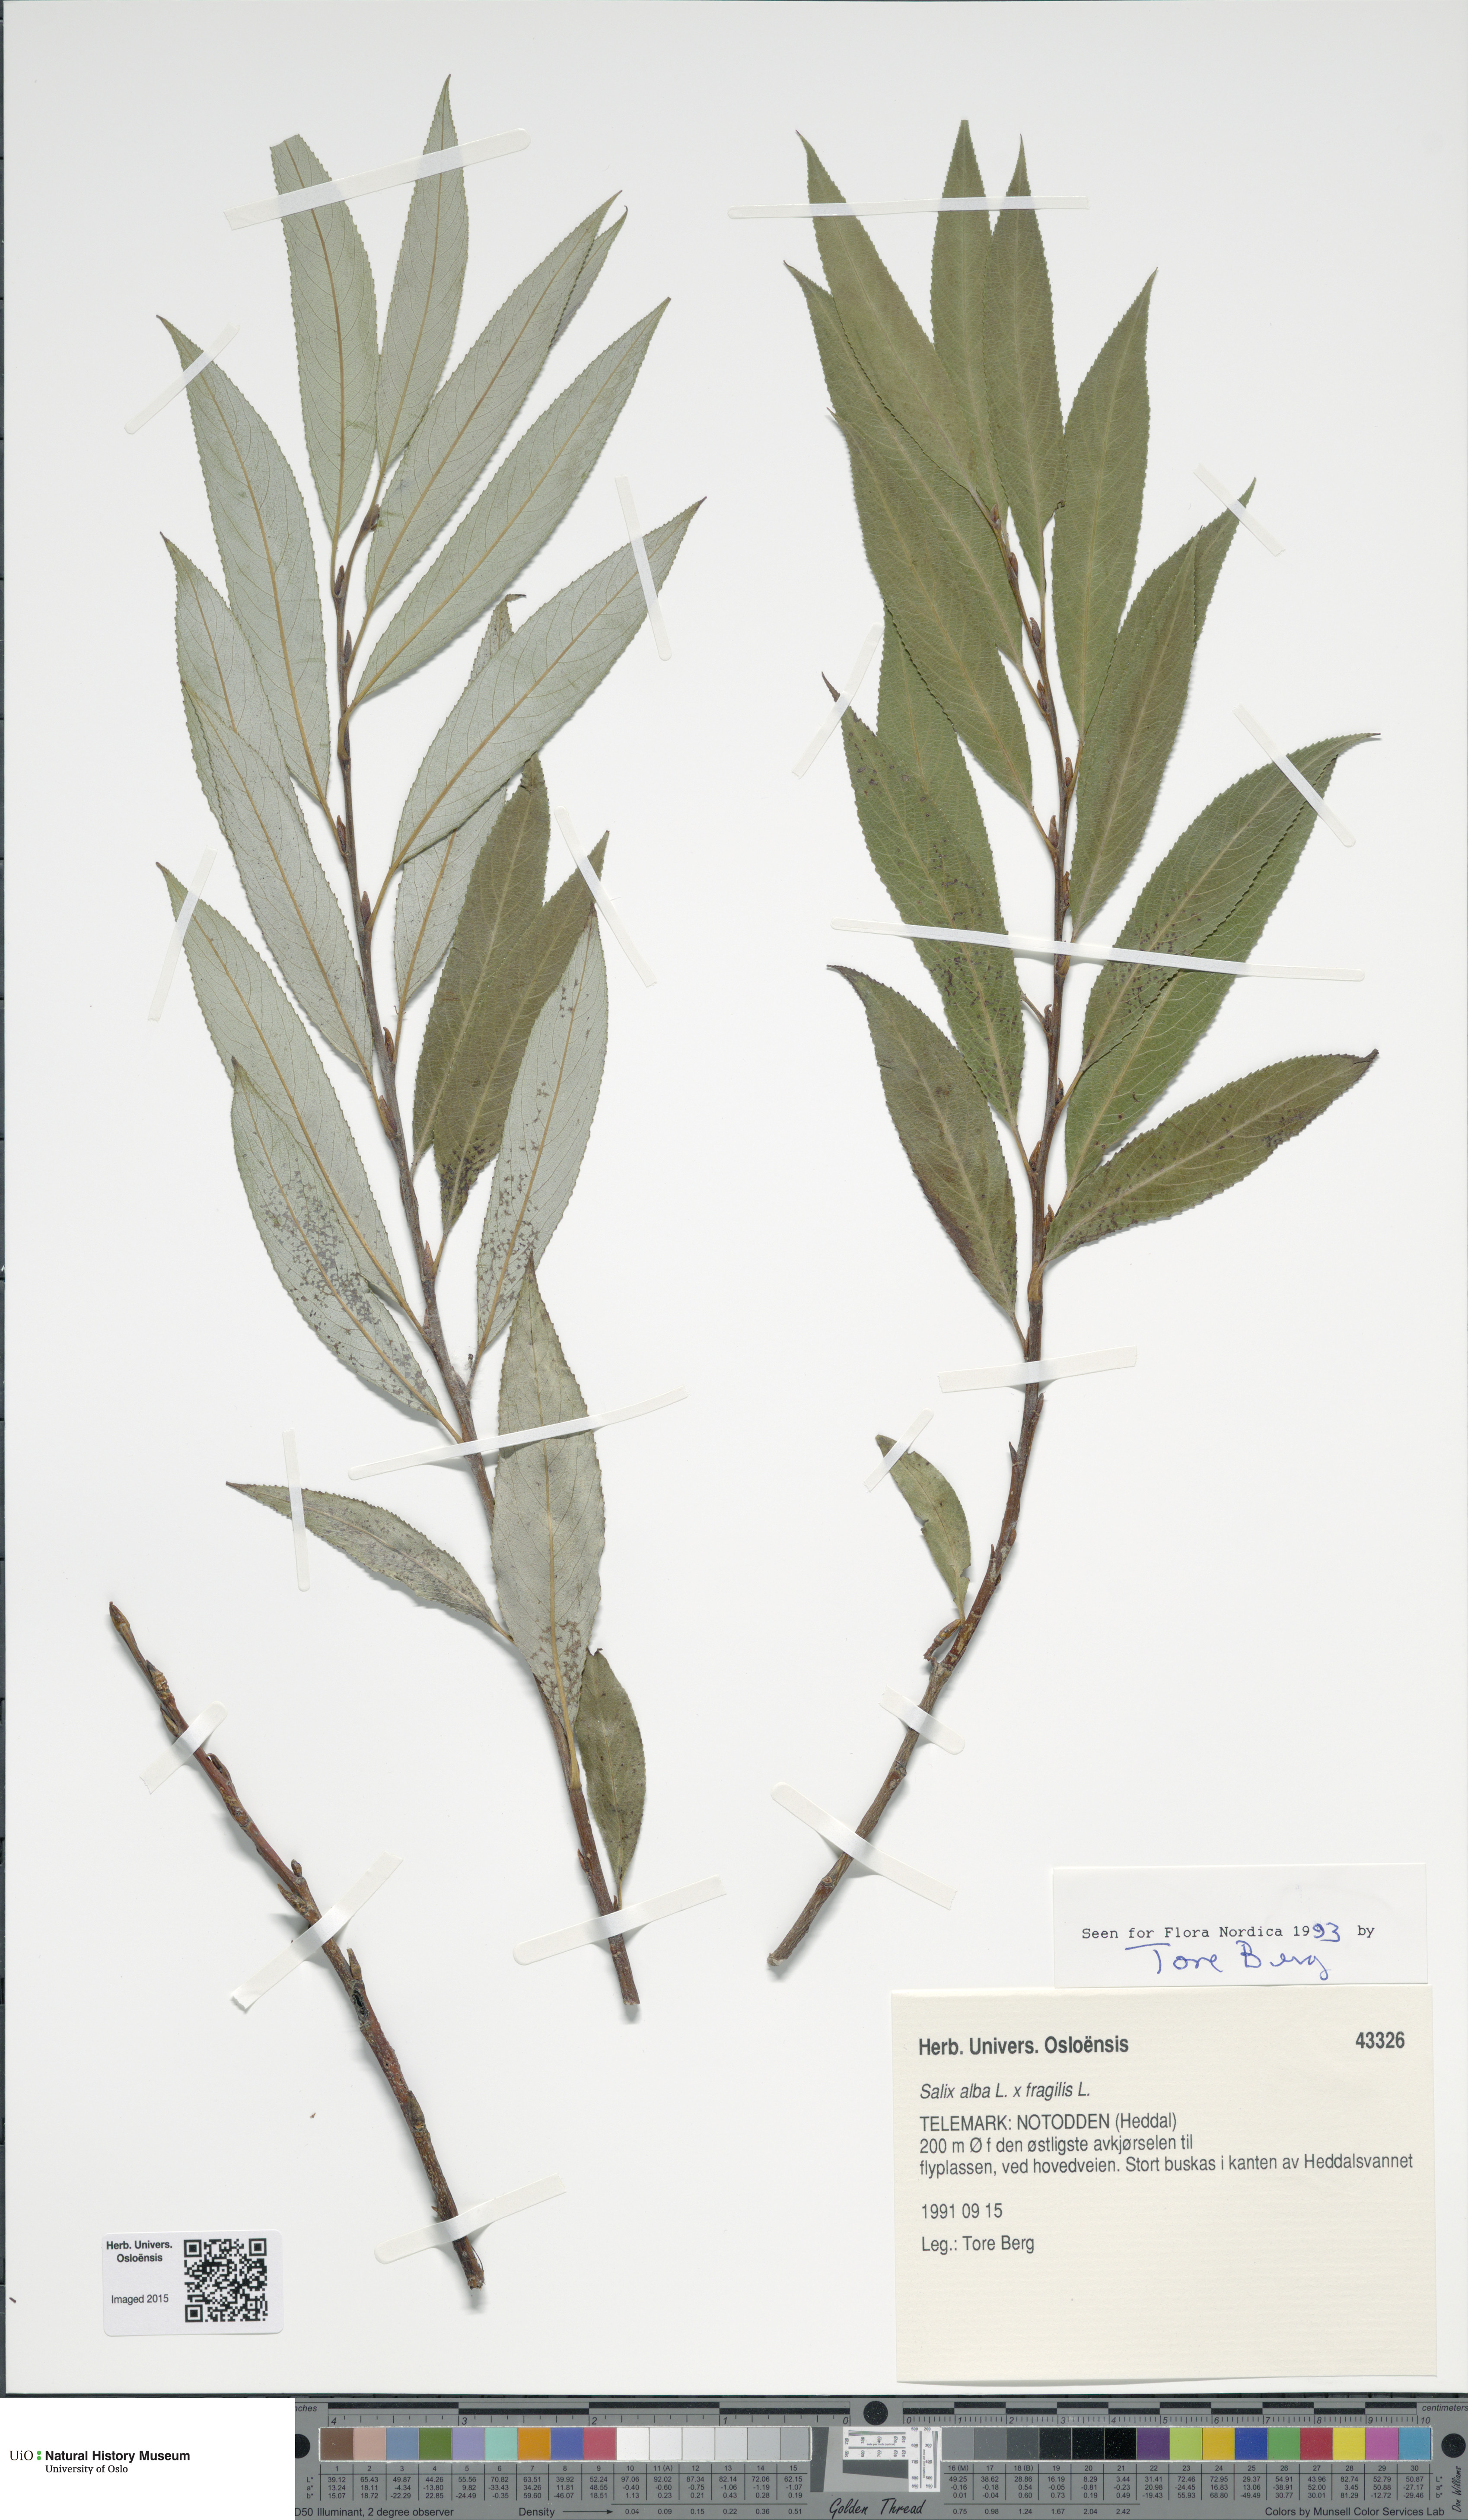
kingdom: Plantae
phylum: Tracheophyta
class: Magnoliopsida
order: Malpighiales
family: Salicaceae
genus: Salix
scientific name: Salix
